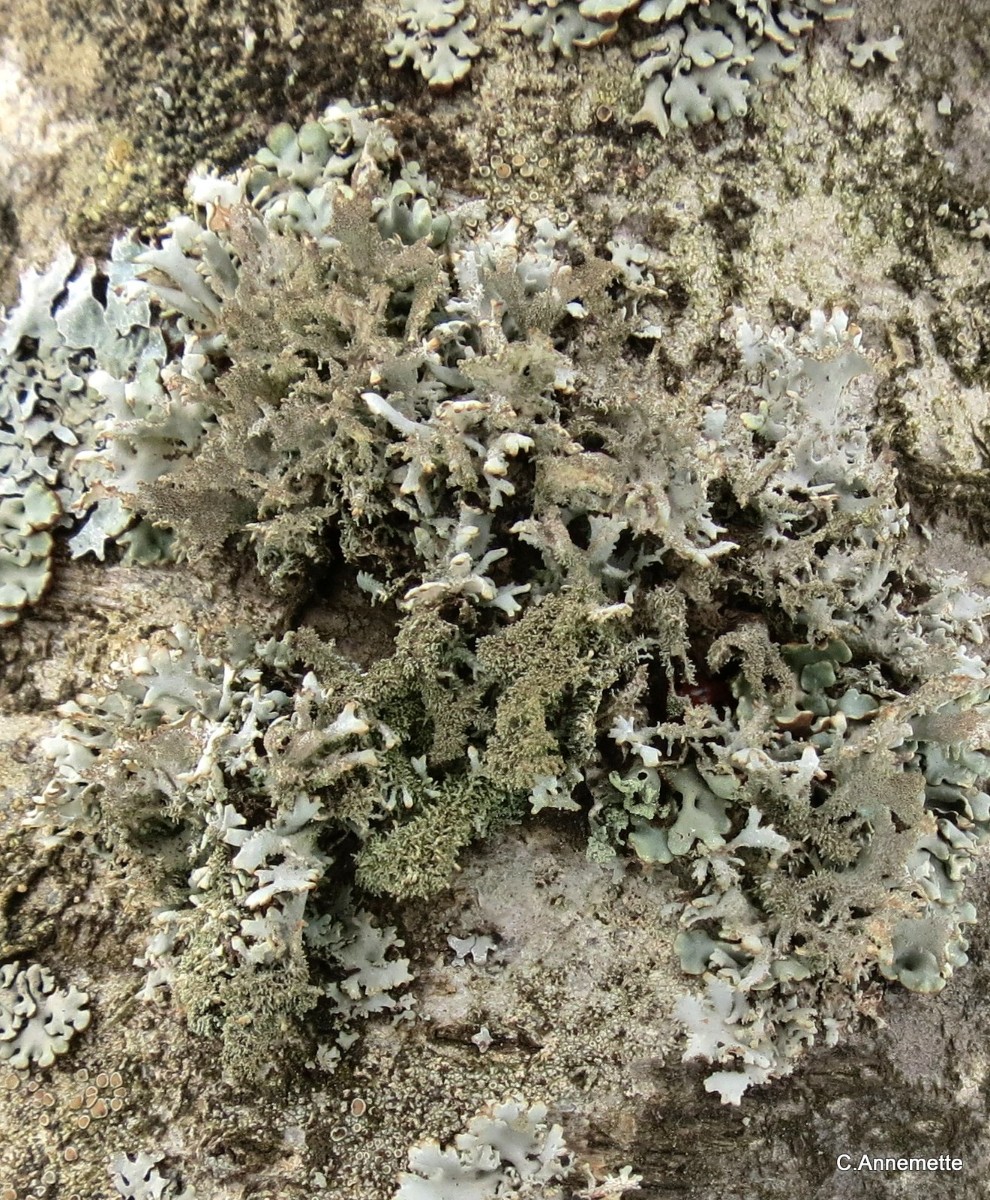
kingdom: Fungi
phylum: Ascomycota
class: Lecanoromycetes
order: Lecanorales
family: Parmeliaceae
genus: Pseudevernia
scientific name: Pseudevernia furfuracea
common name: grå fyrrelav
